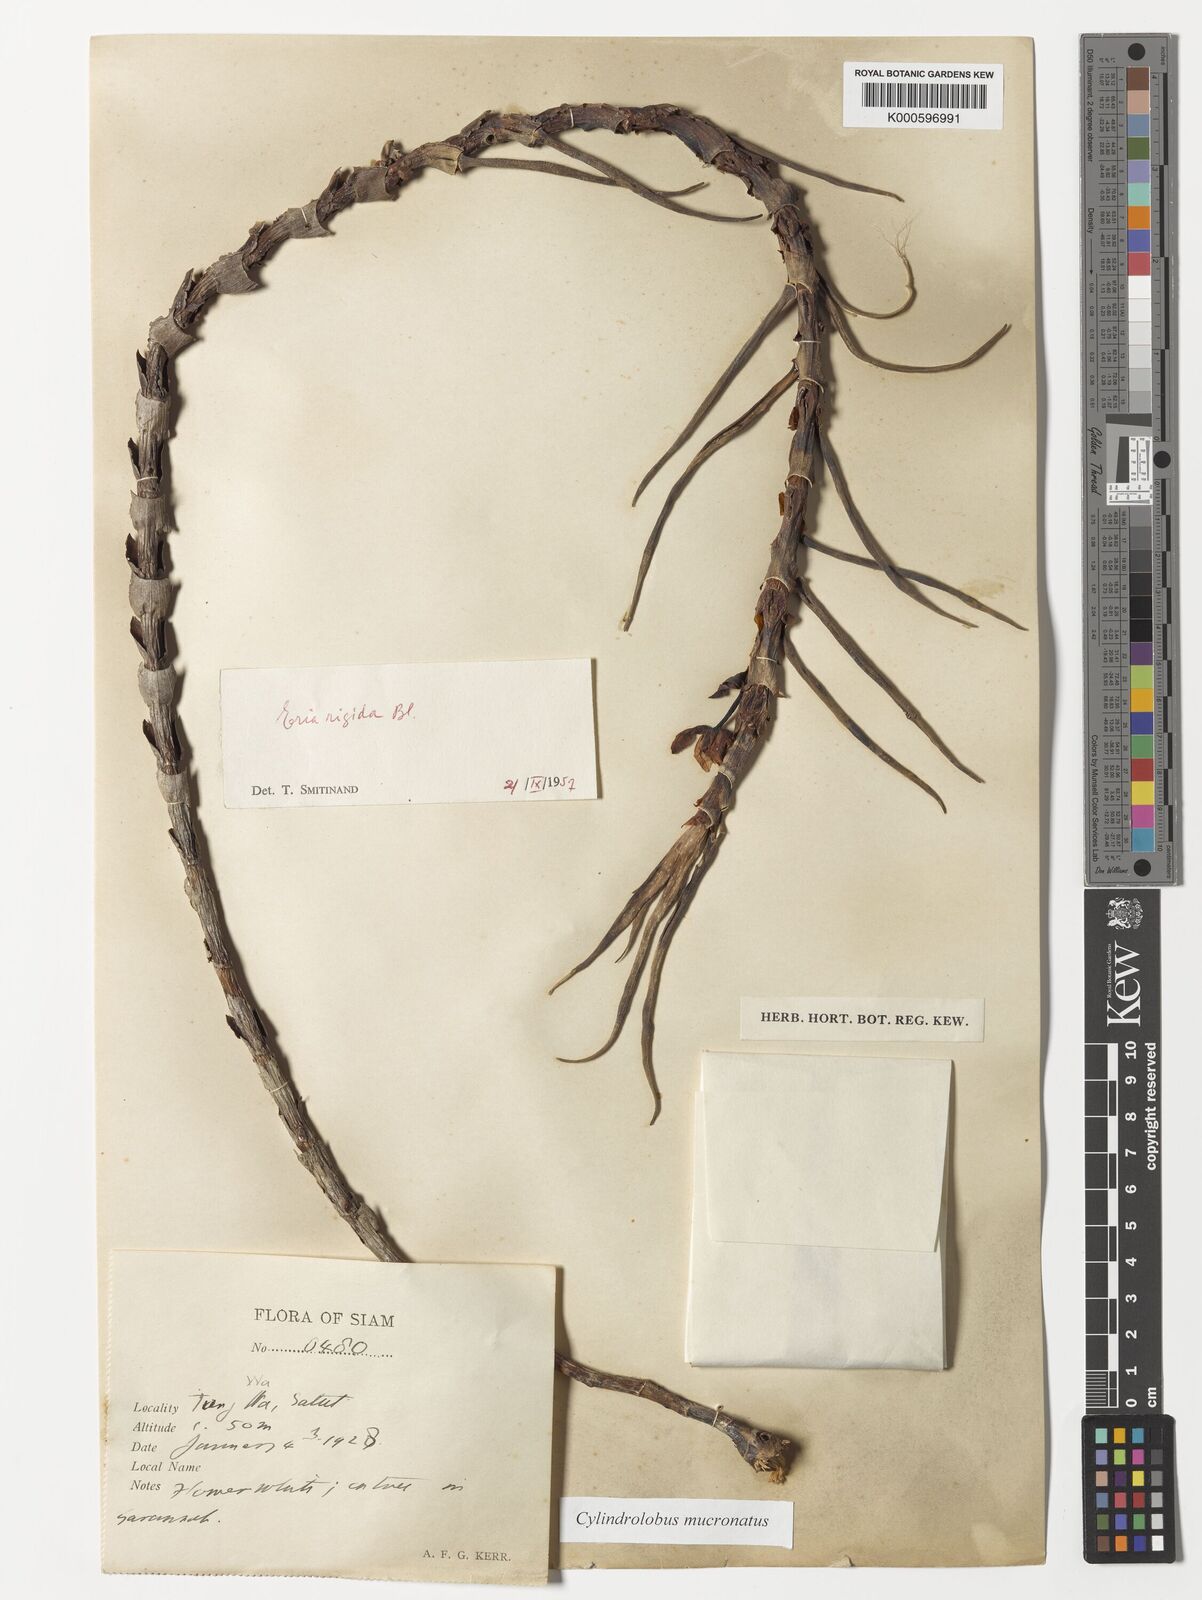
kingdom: Plantae
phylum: Tracheophyta
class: Liliopsida
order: Asparagales
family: Orchidaceae
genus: Cylindrolobus
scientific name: Cylindrolobus mucronatus
